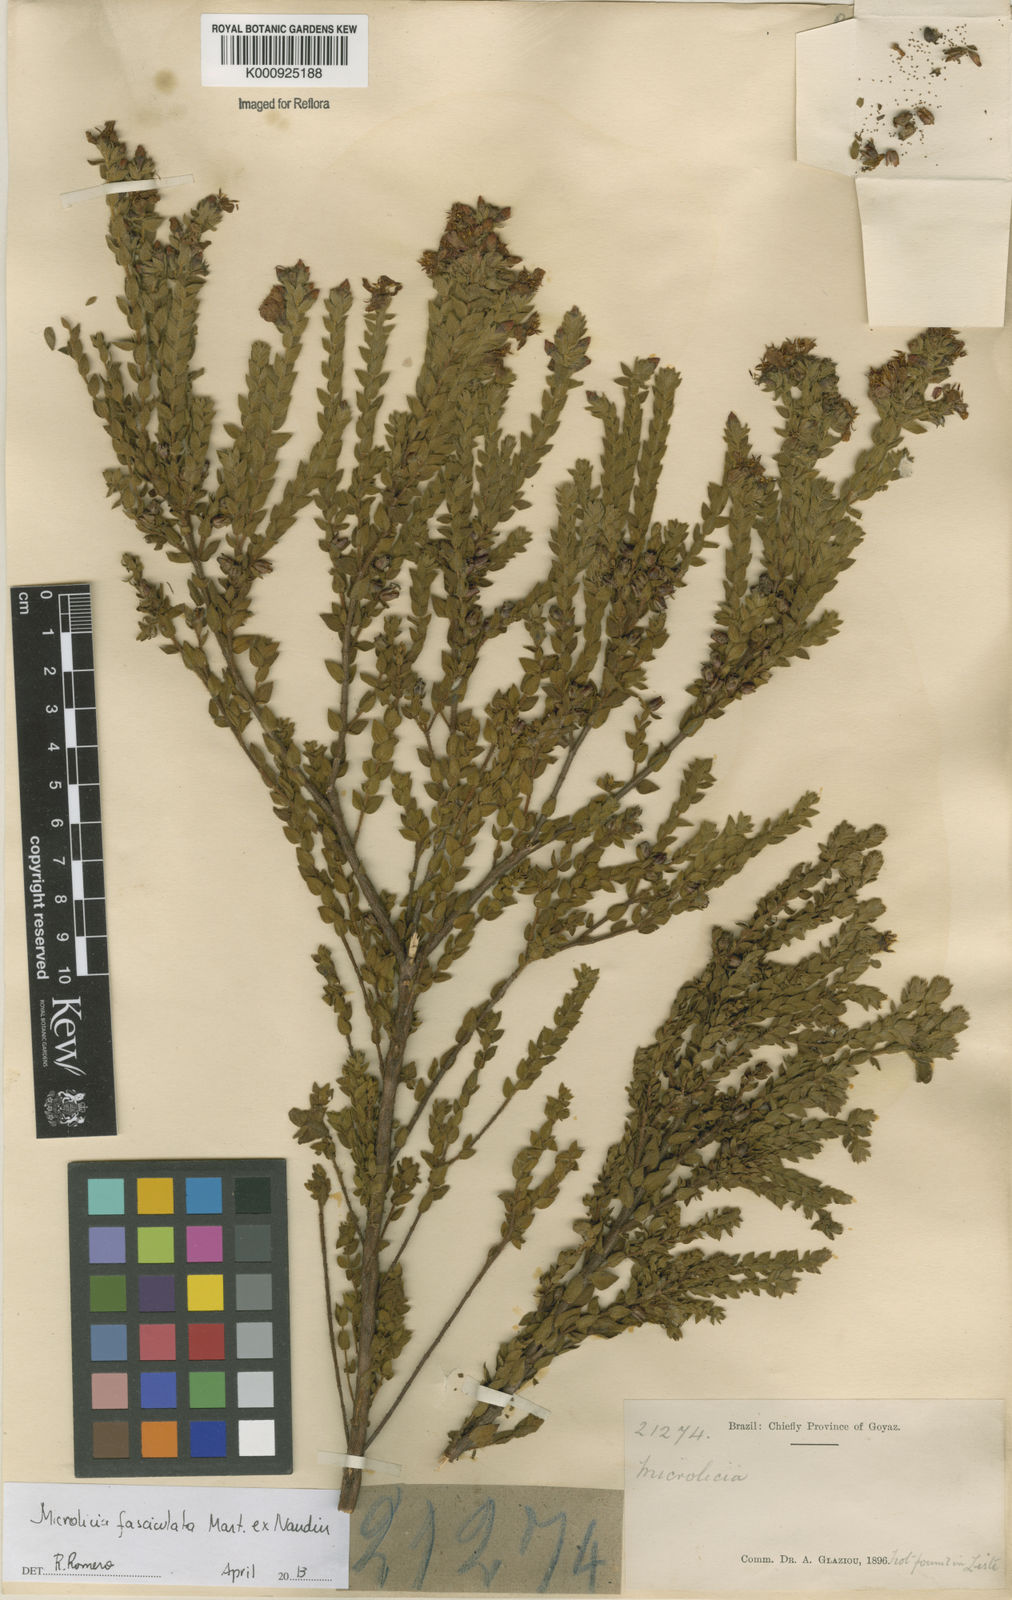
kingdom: Plantae
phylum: Tracheophyta
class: Magnoliopsida
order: Myrtales
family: Melastomataceae
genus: Microlicia
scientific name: Microlicia fasciculata
